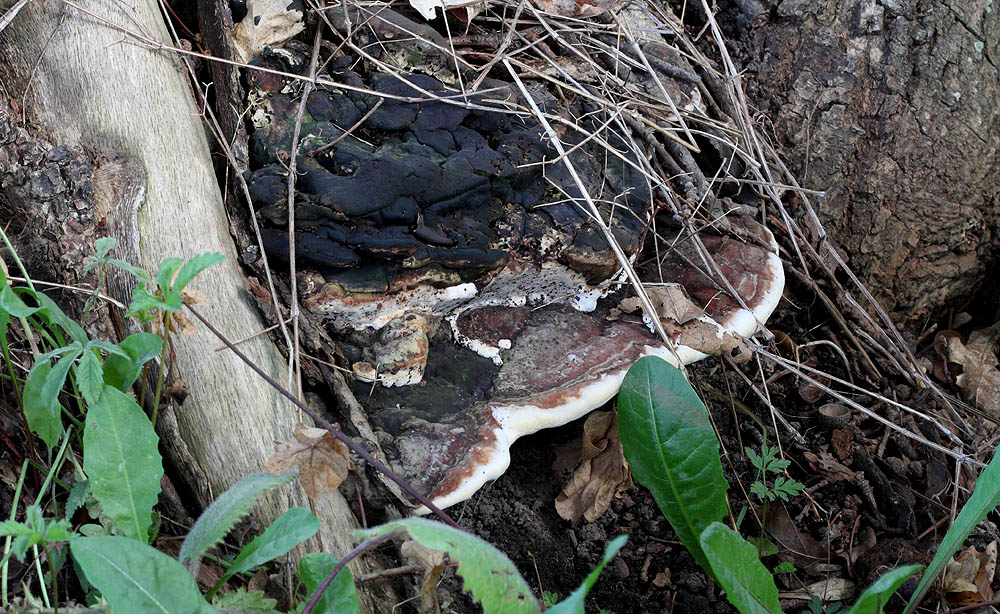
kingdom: Fungi
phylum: Basidiomycota
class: Agaricomycetes
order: Polyporales
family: Polyporaceae
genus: Vanderbylia
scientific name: Vanderbylia fraxinea
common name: stor kanelporesvamp
